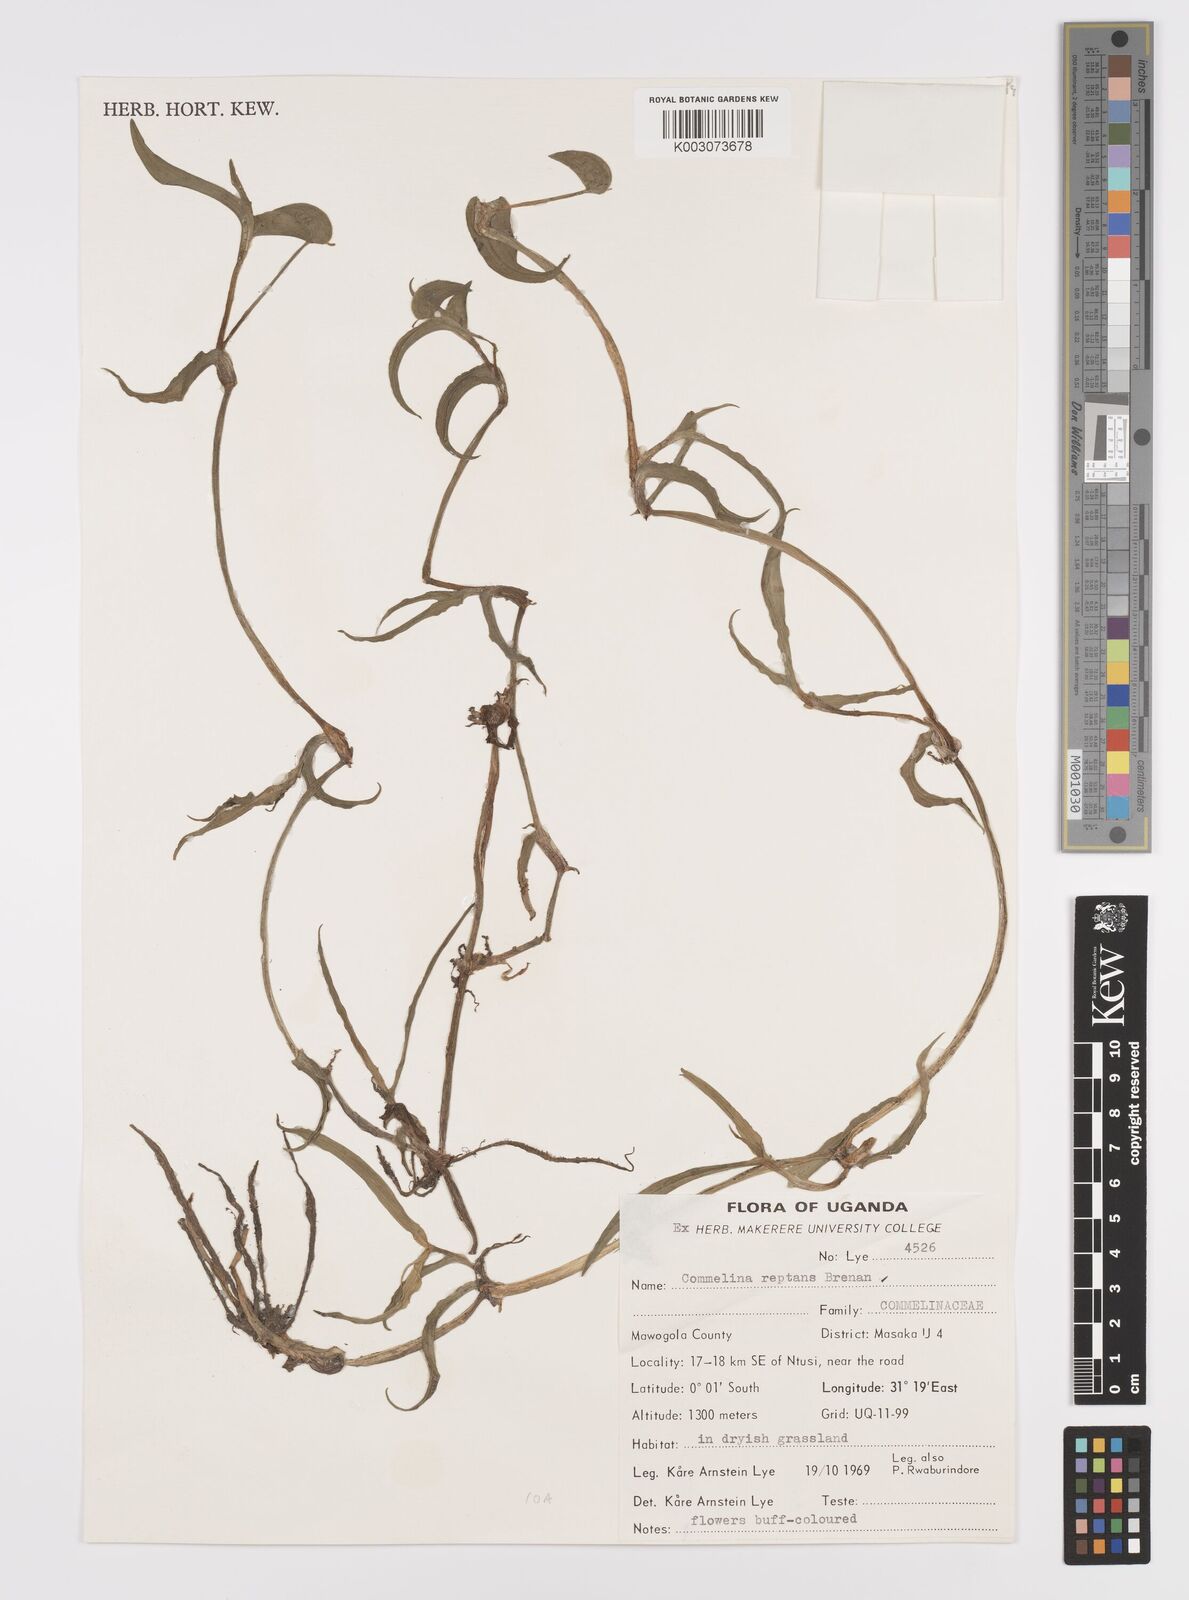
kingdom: Plantae
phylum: Tracheophyta
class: Liliopsida
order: Commelinales
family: Commelinaceae
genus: Commelina
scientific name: Commelina reptans
